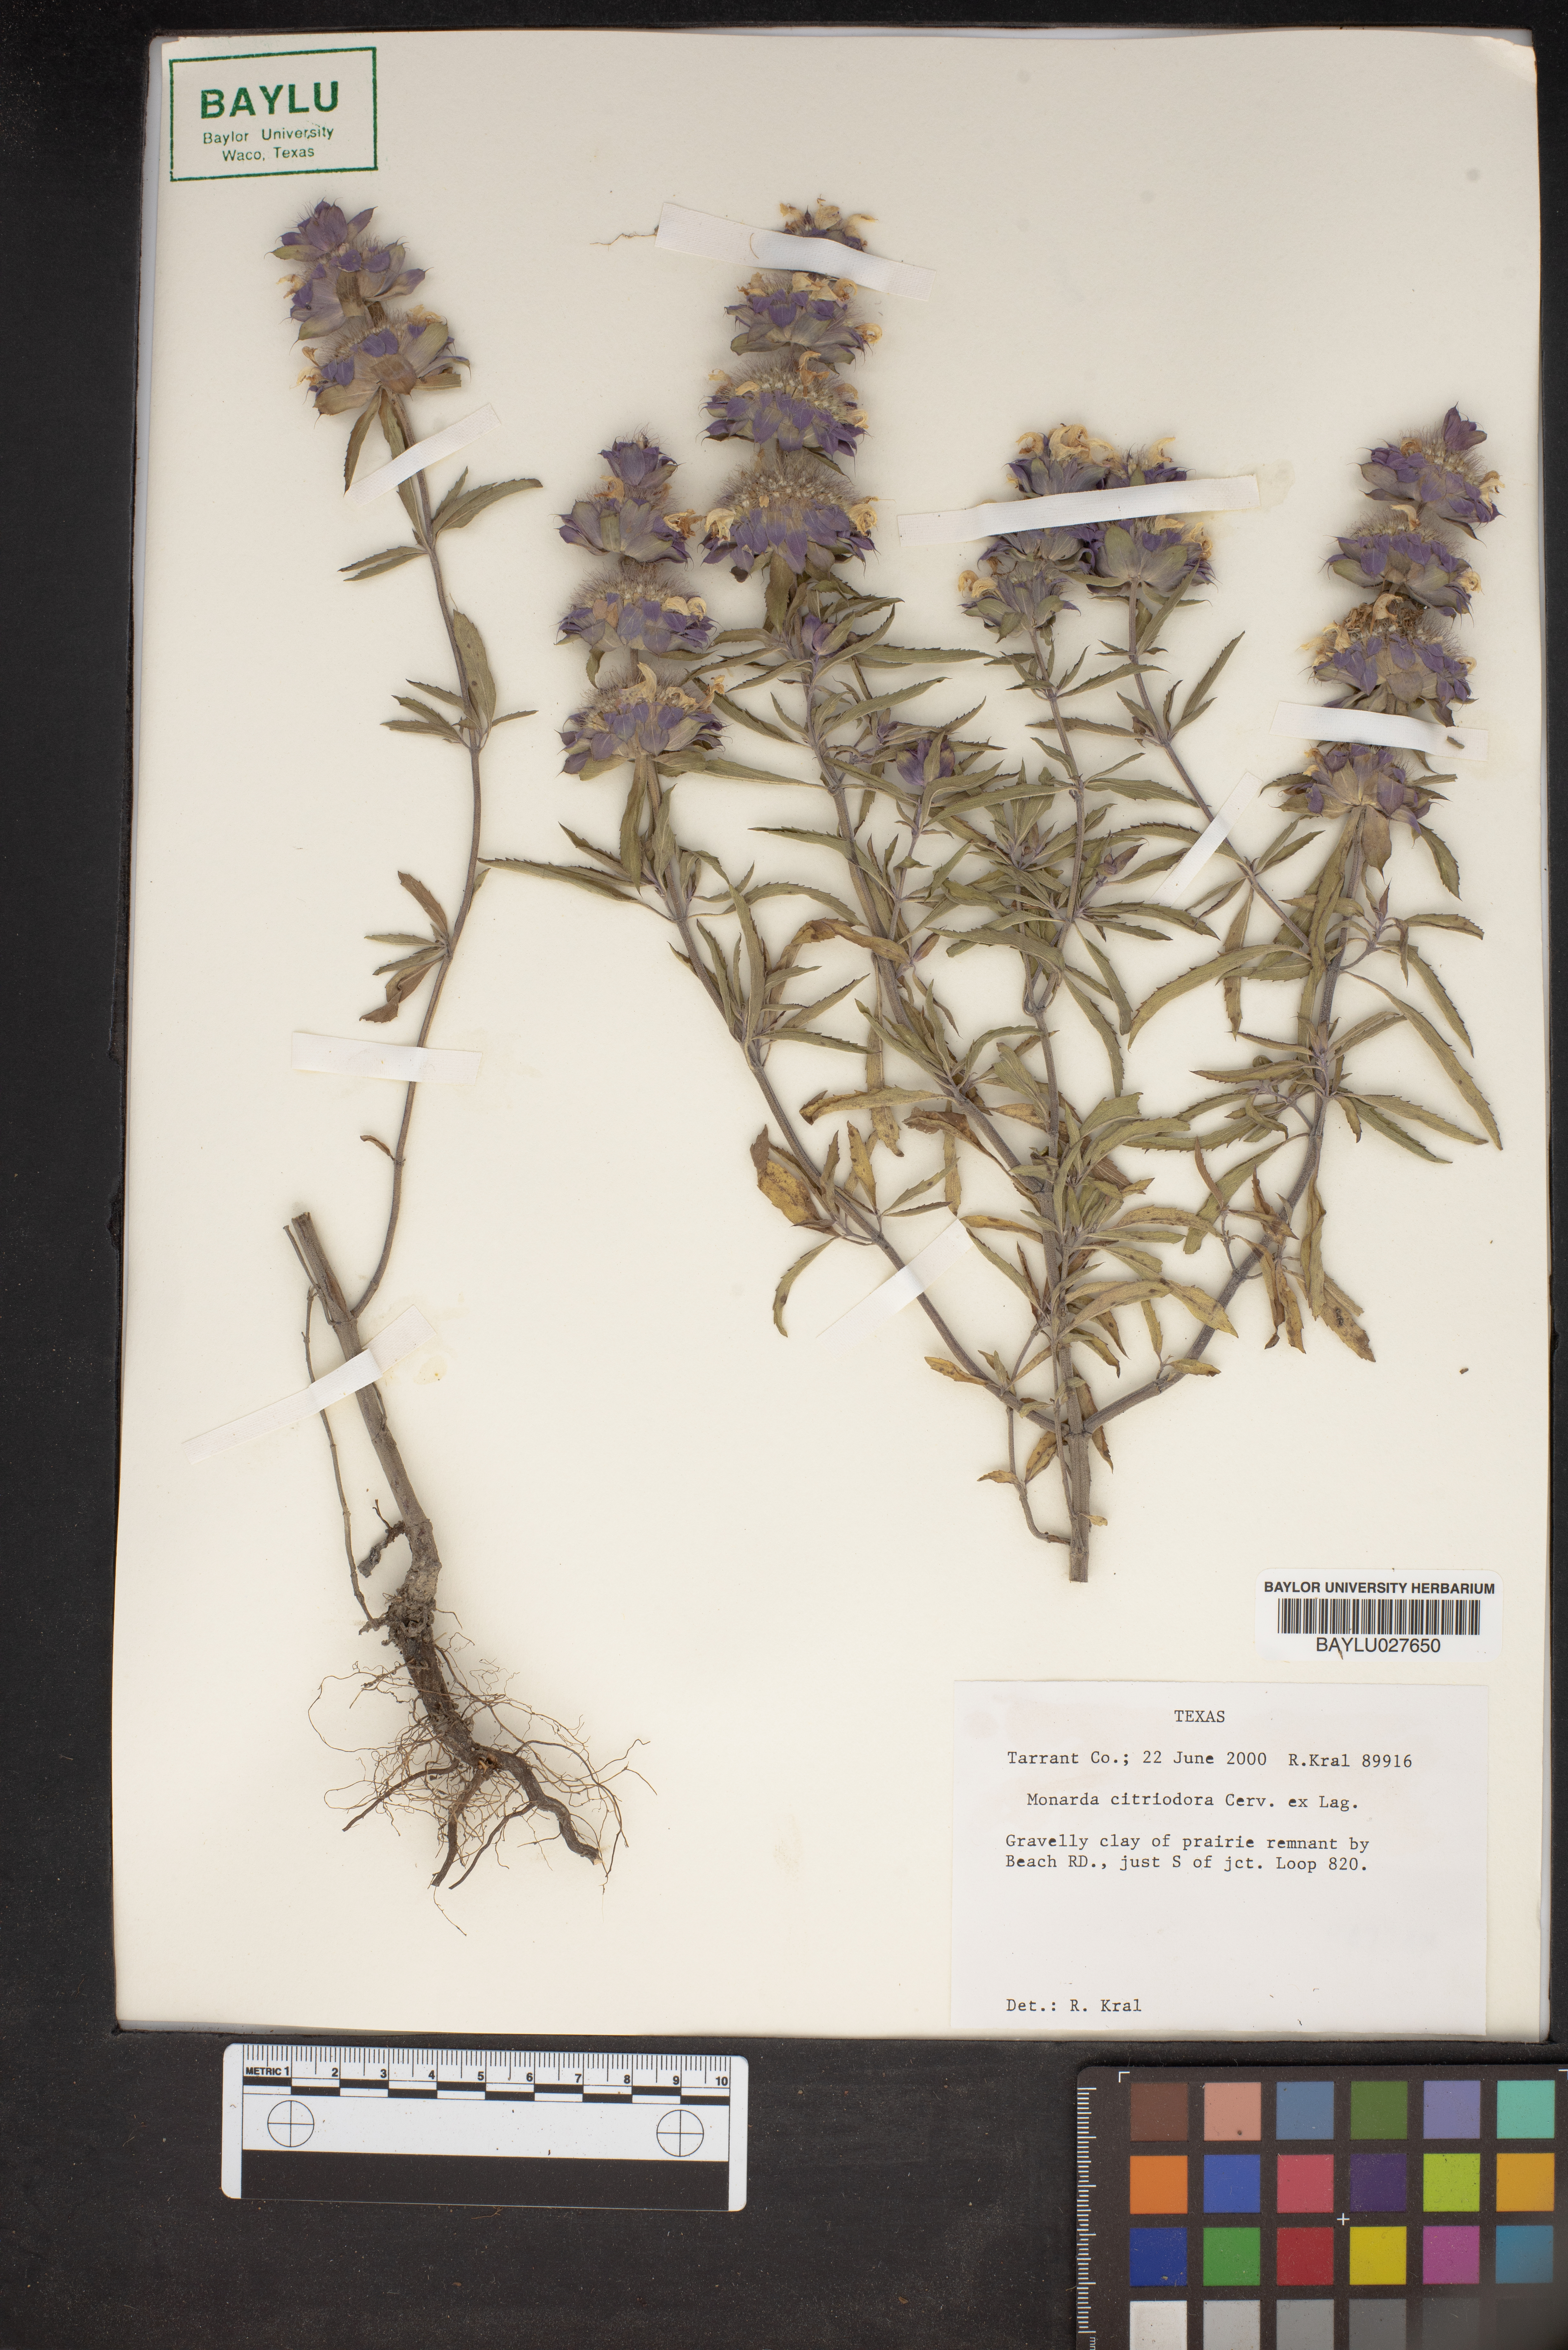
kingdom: Plantae
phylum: Tracheophyta
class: Magnoliopsida
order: Lamiales
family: Lamiaceae
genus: Monarda
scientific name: Monarda citriodora
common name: Lemon beebalm
